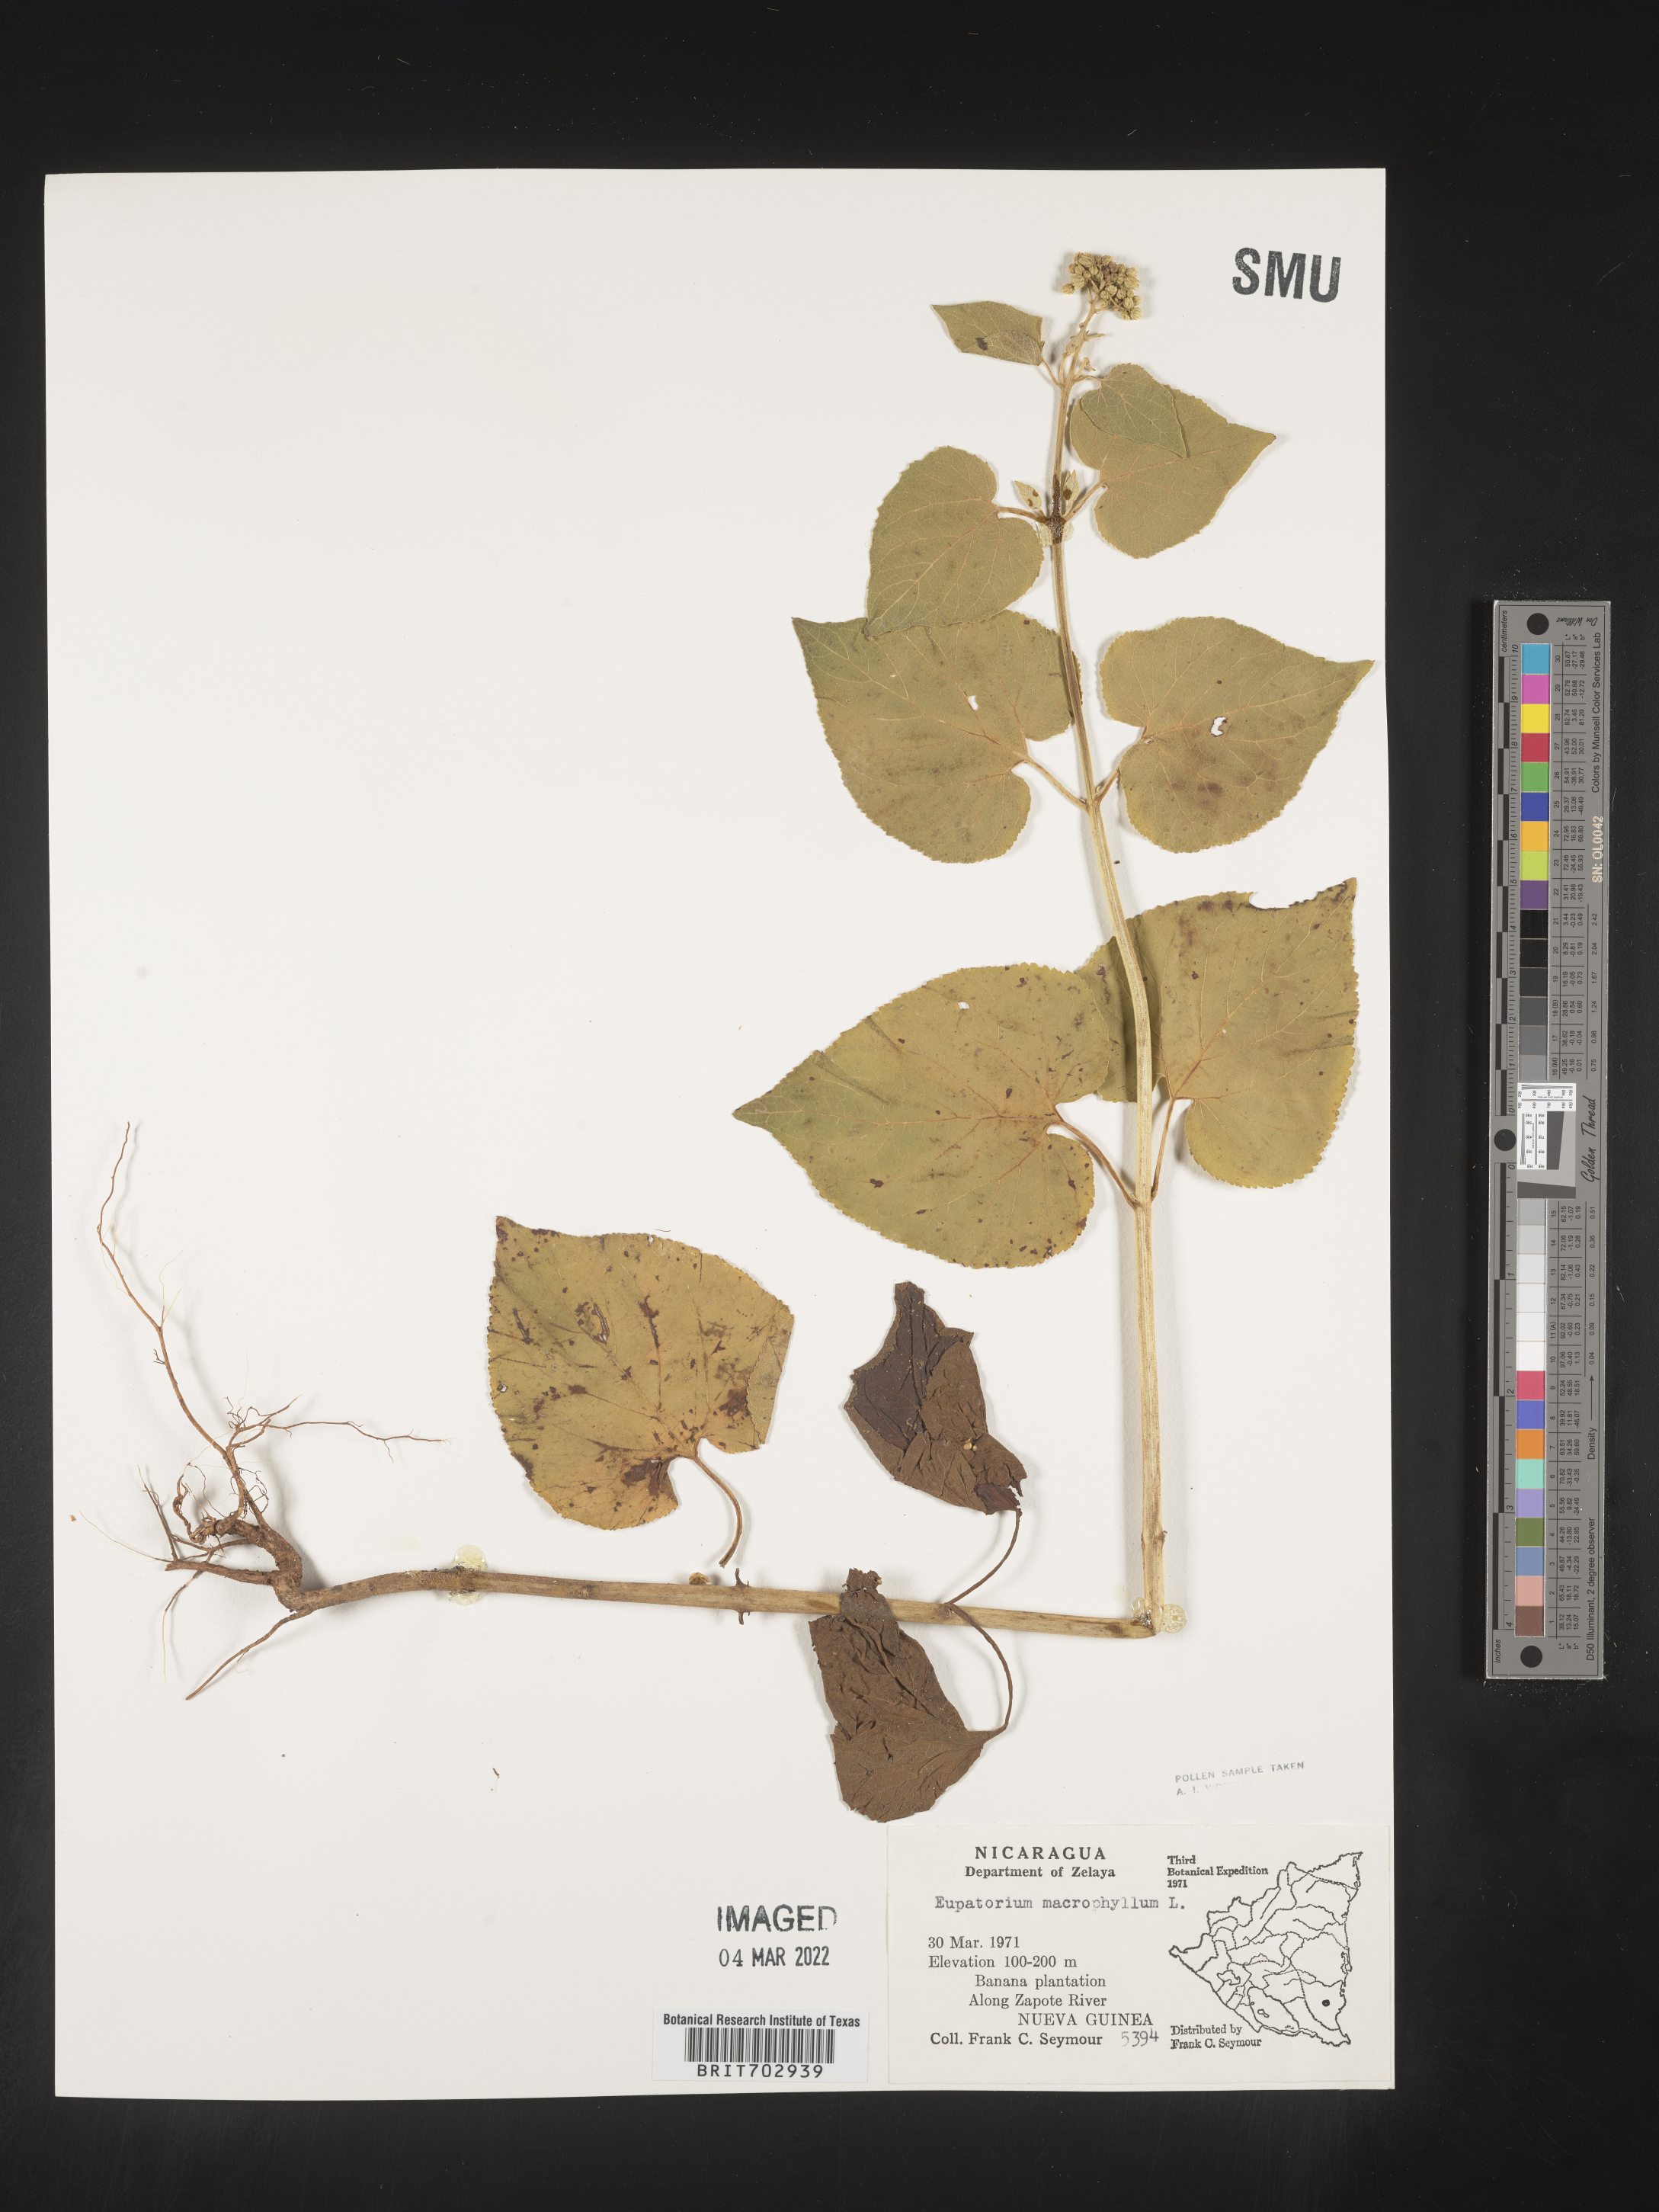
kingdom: Plantae
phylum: Tracheophyta
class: Magnoliopsida
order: Asterales
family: Asteraceae
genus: Eupatorium
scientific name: Eupatorium
